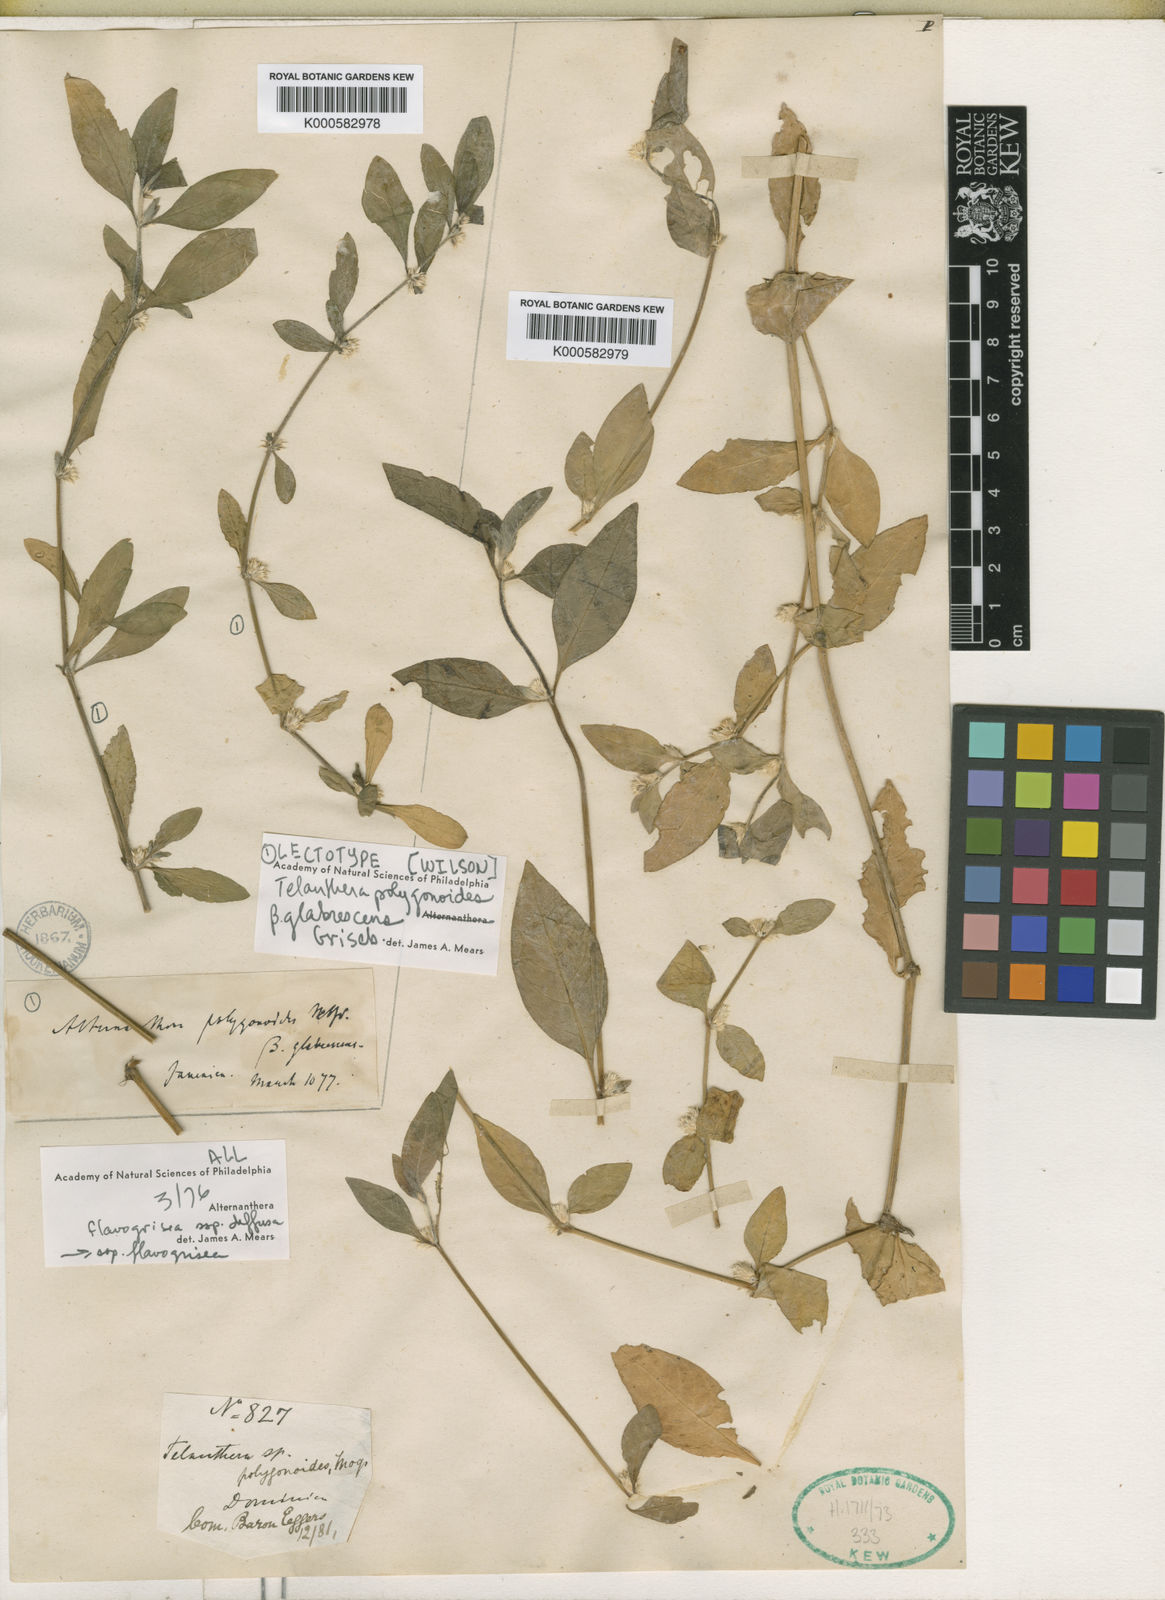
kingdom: Plantae
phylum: Tracheophyta
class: Magnoliopsida
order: Caryophyllales
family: Amaranthaceae
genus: Alternanthera
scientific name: Alternanthera halimifolia
